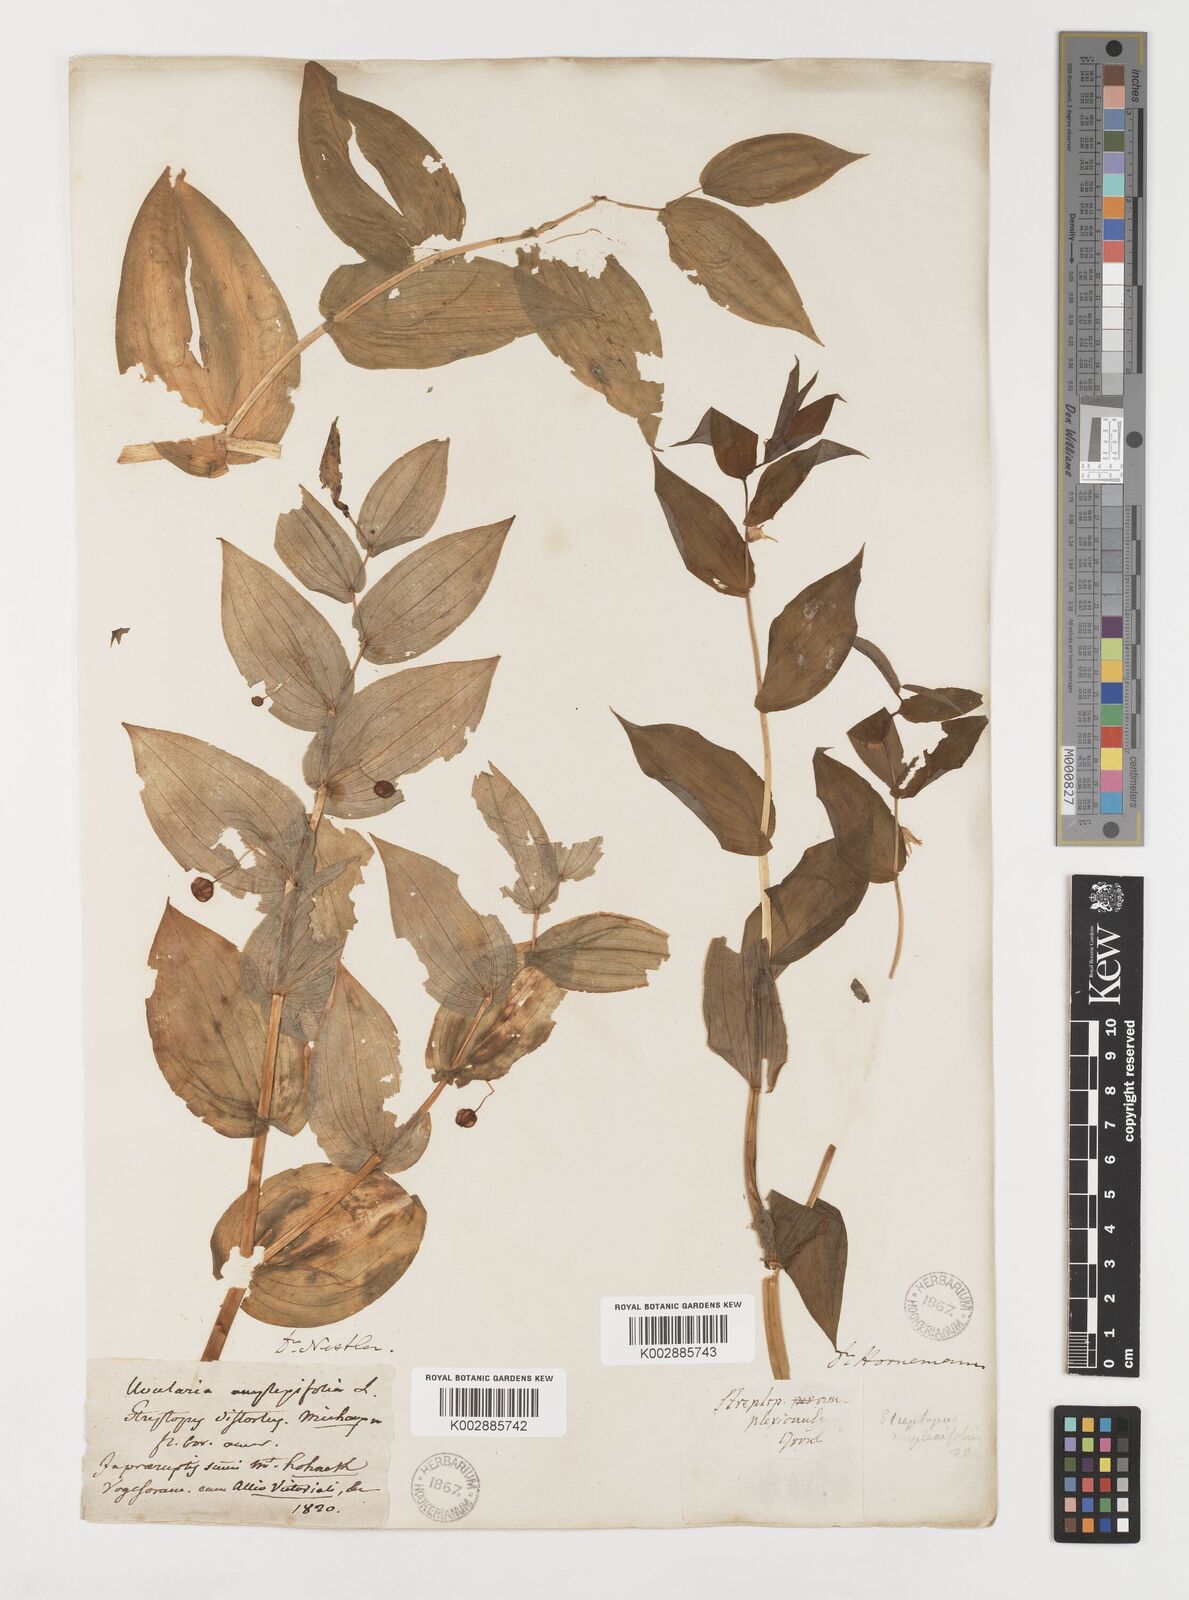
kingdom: Plantae
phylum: Tracheophyta
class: Liliopsida
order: Liliales
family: Liliaceae
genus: Streptopus
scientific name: Streptopus amplexifolius
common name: Clasp twisted stalk
